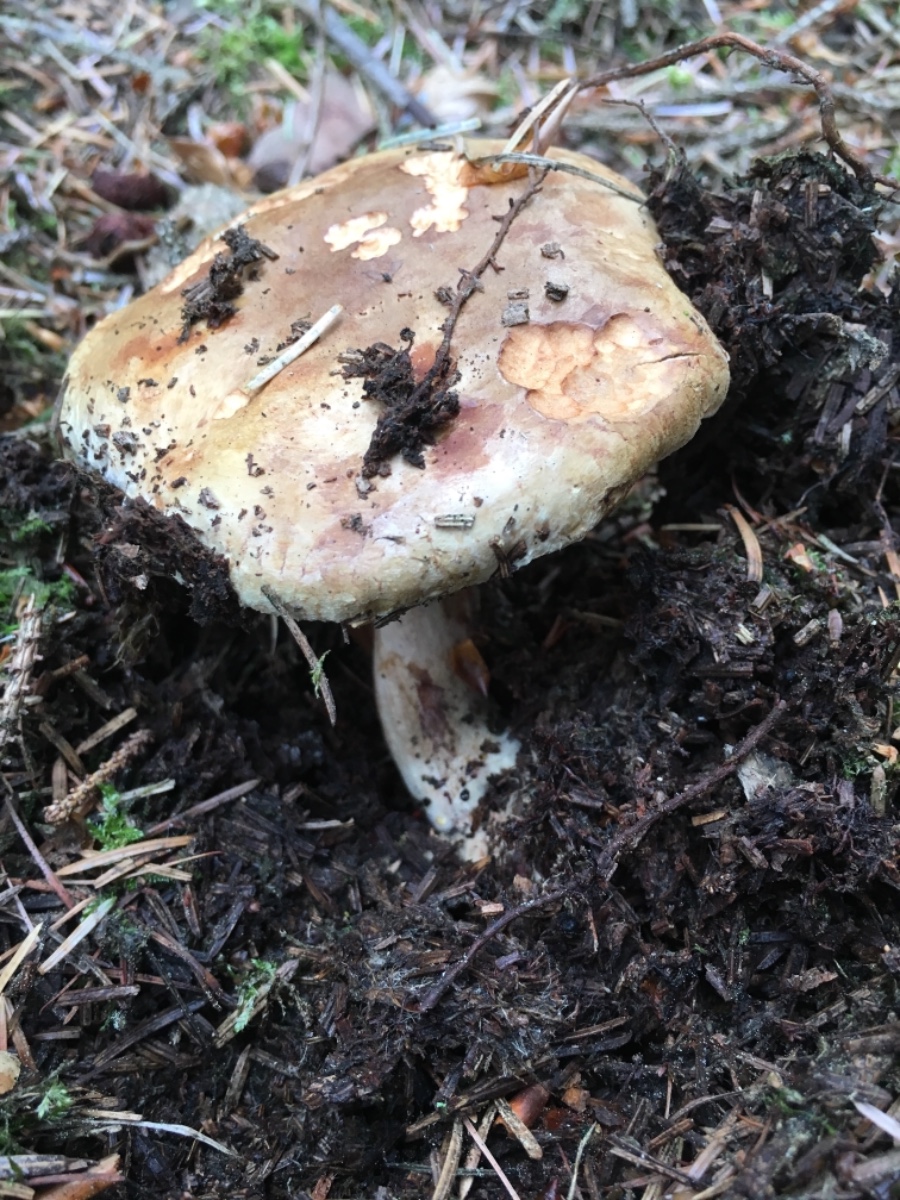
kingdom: Fungi
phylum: Basidiomycota
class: Agaricomycetes
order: Boletales
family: Paxillaceae
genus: Paxillus
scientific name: Paxillus involutus
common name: almindelig netbladhat
